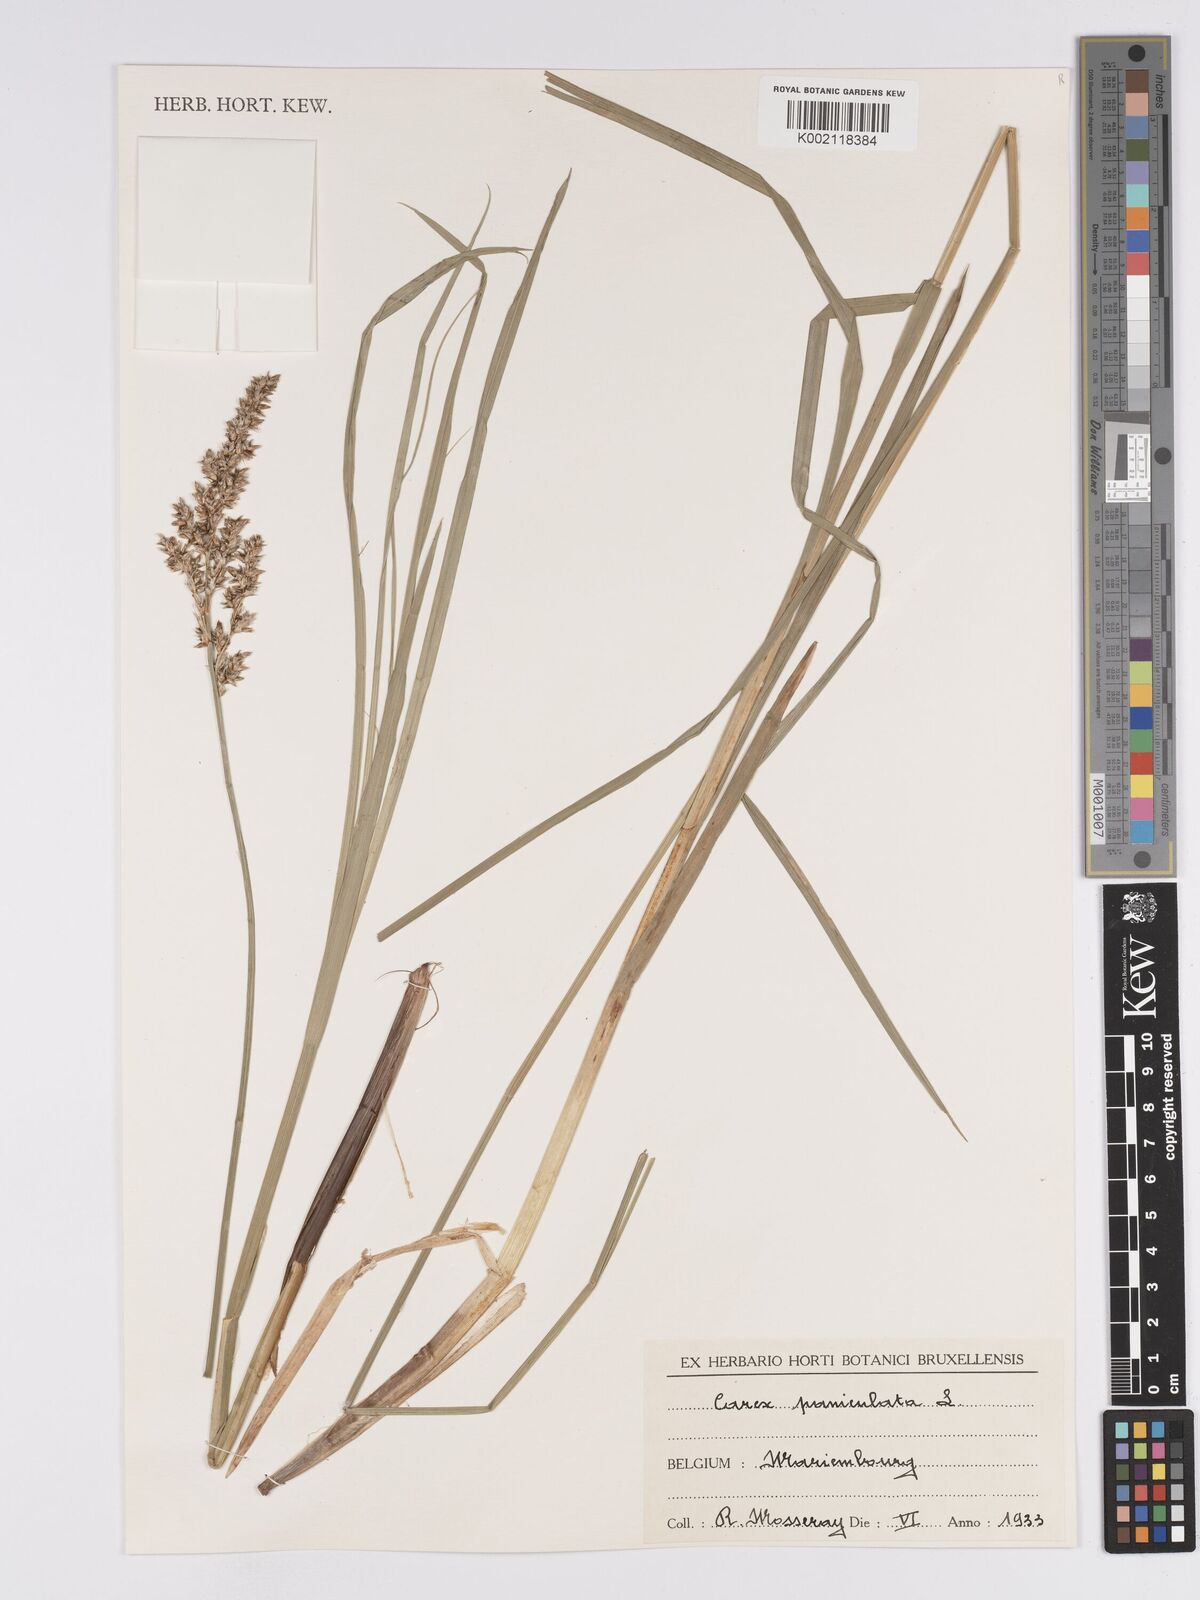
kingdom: Plantae
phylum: Tracheophyta
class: Liliopsida
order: Poales
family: Cyperaceae
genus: Carex
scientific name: Carex paniculata
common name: Greater tussock-sedge
